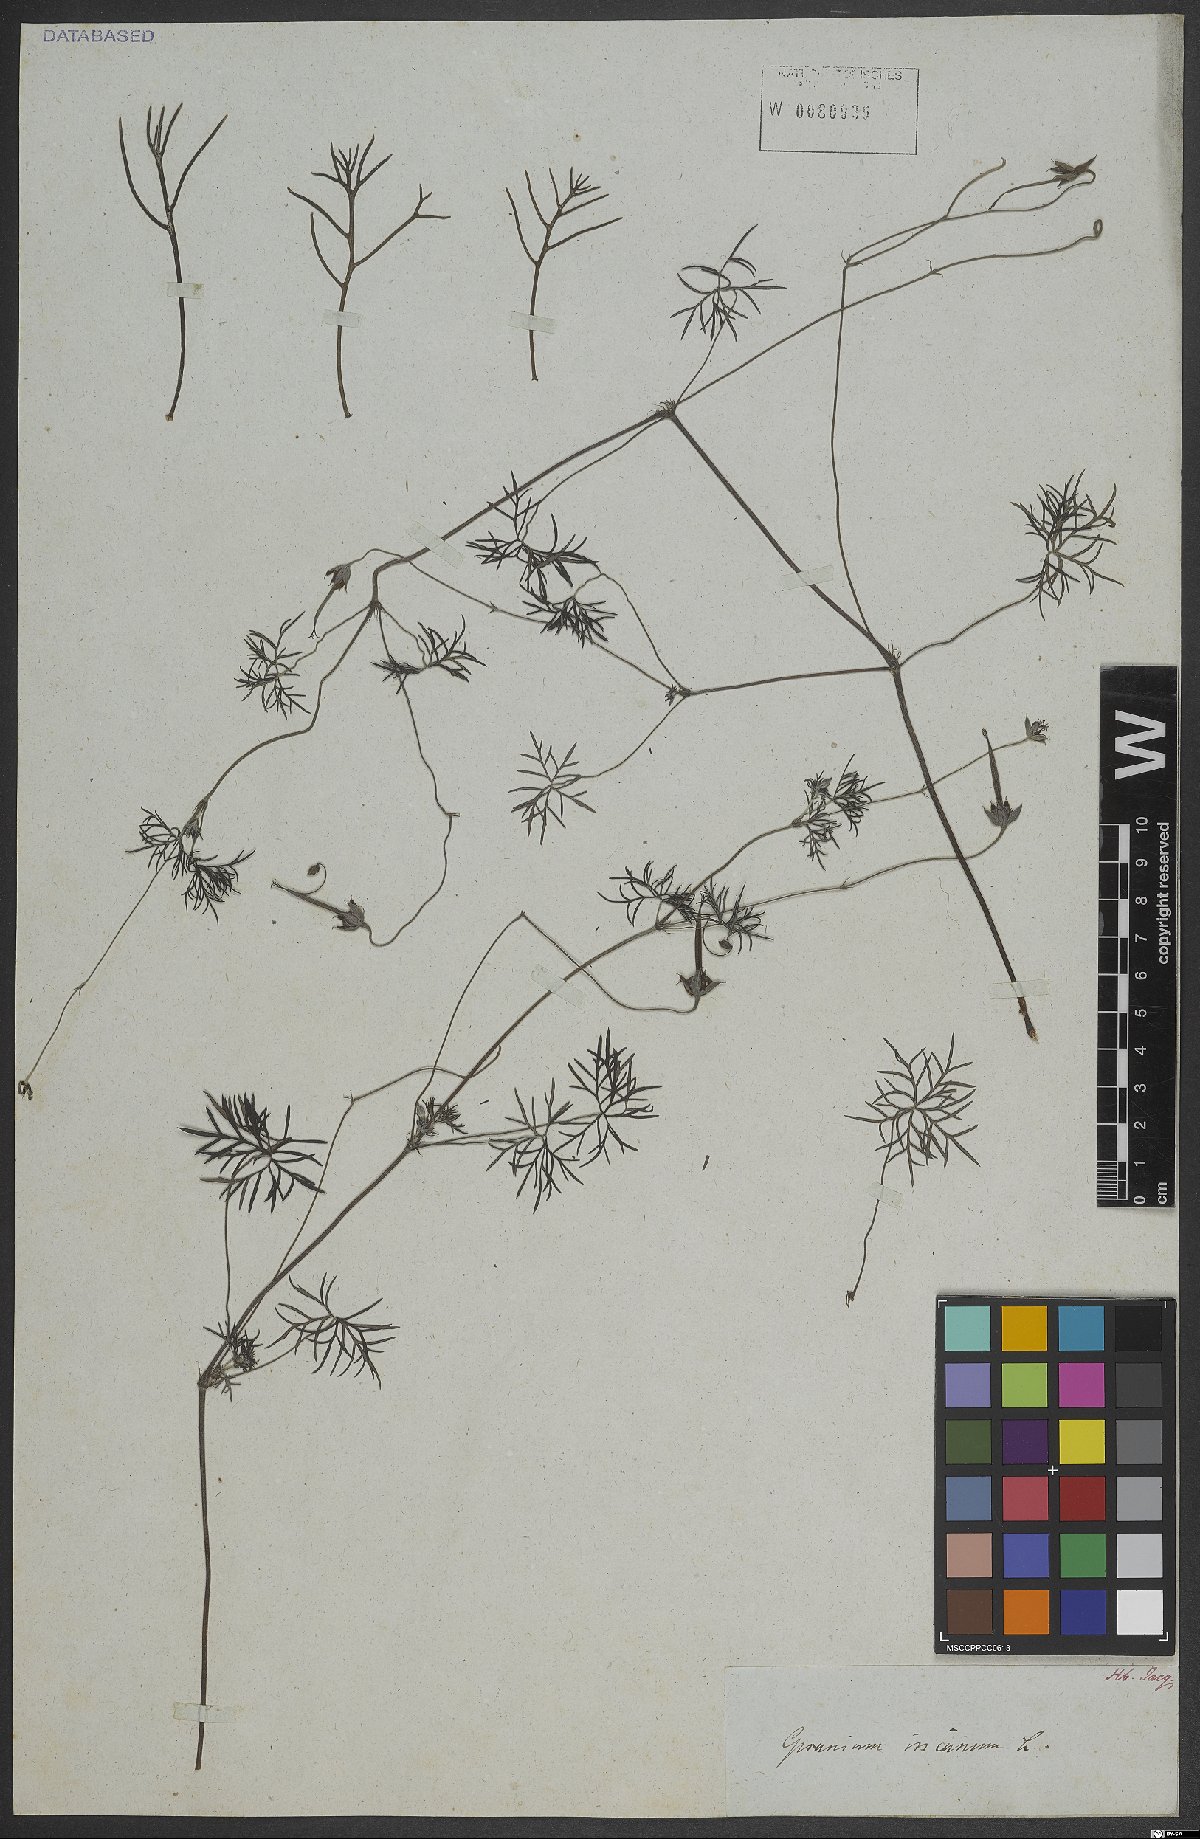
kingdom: Plantae
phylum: Tracheophyta
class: Magnoliopsida
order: Geraniales
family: Geraniaceae
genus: Geranium
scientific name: Geranium incanum
